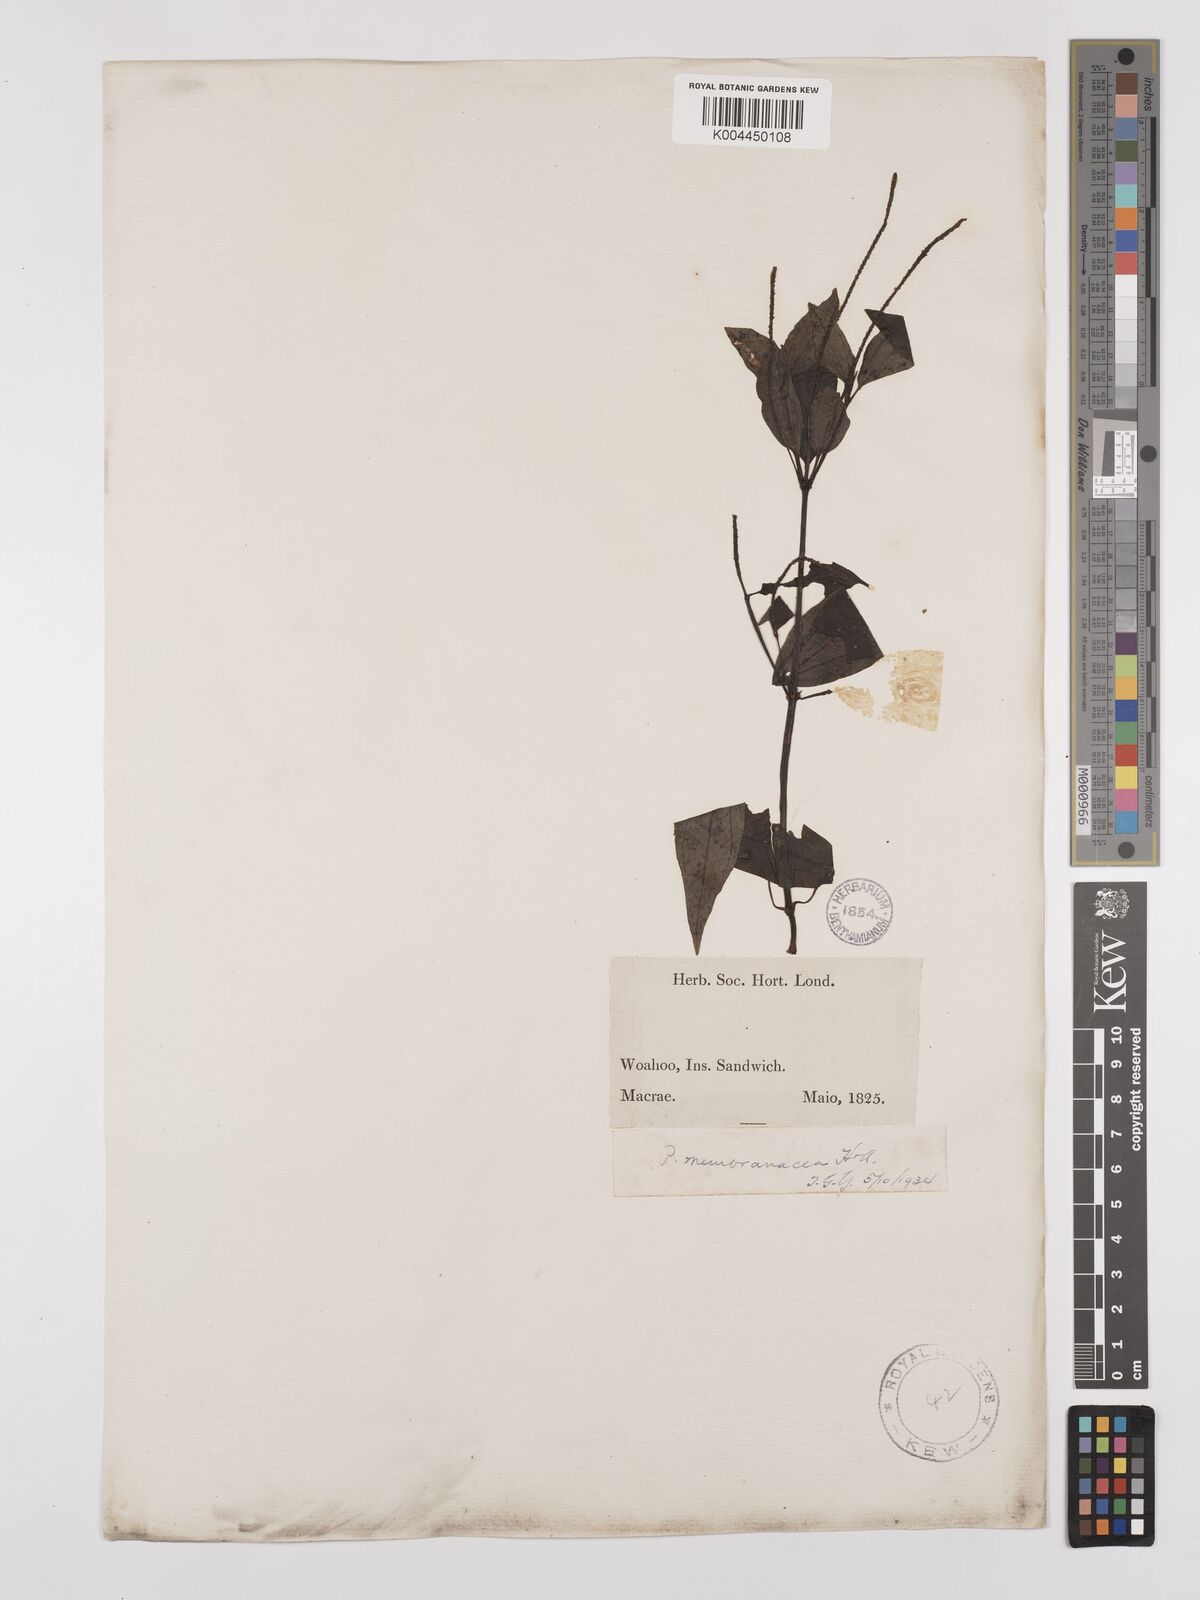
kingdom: Plantae
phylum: Tracheophyta
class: Magnoliopsida
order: Piperales
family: Piperaceae
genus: Peperomia
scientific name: Peperomia membranacea
